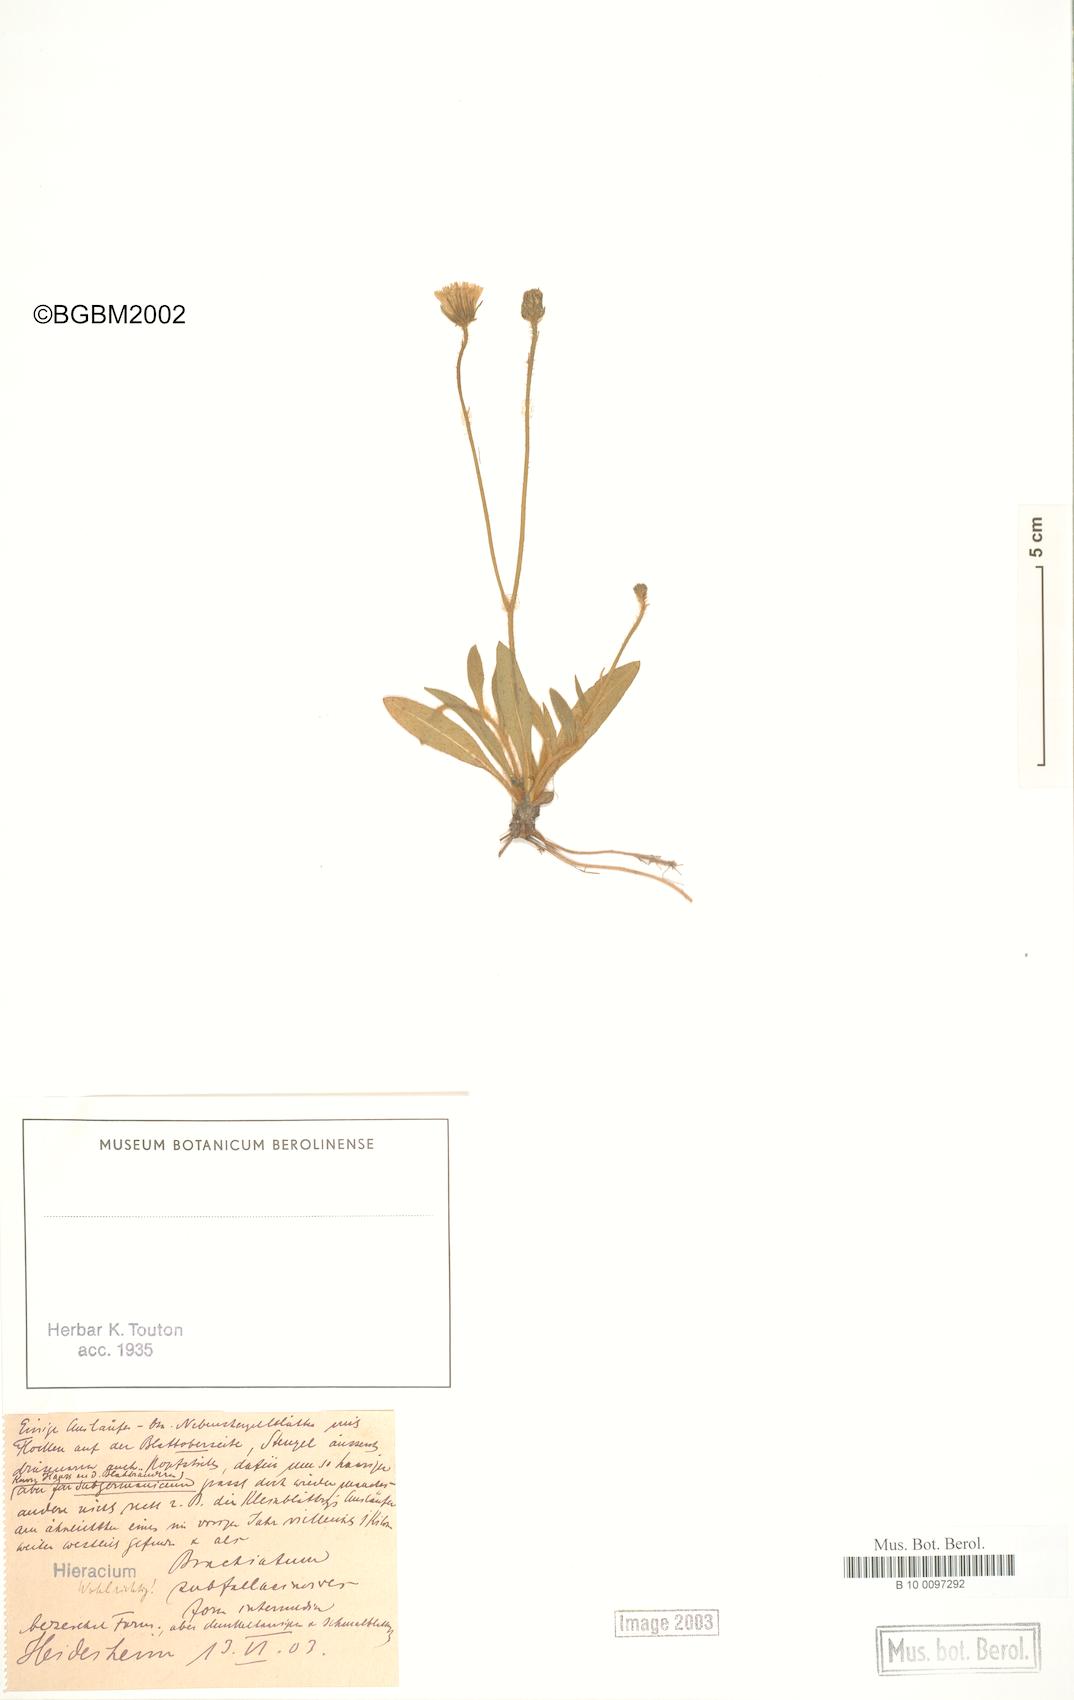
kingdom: Plantae
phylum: Tracheophyta
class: Magnoliopsida
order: Asterales
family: Asteraceae
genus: Pilosella
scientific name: Pilosella acutifolia
